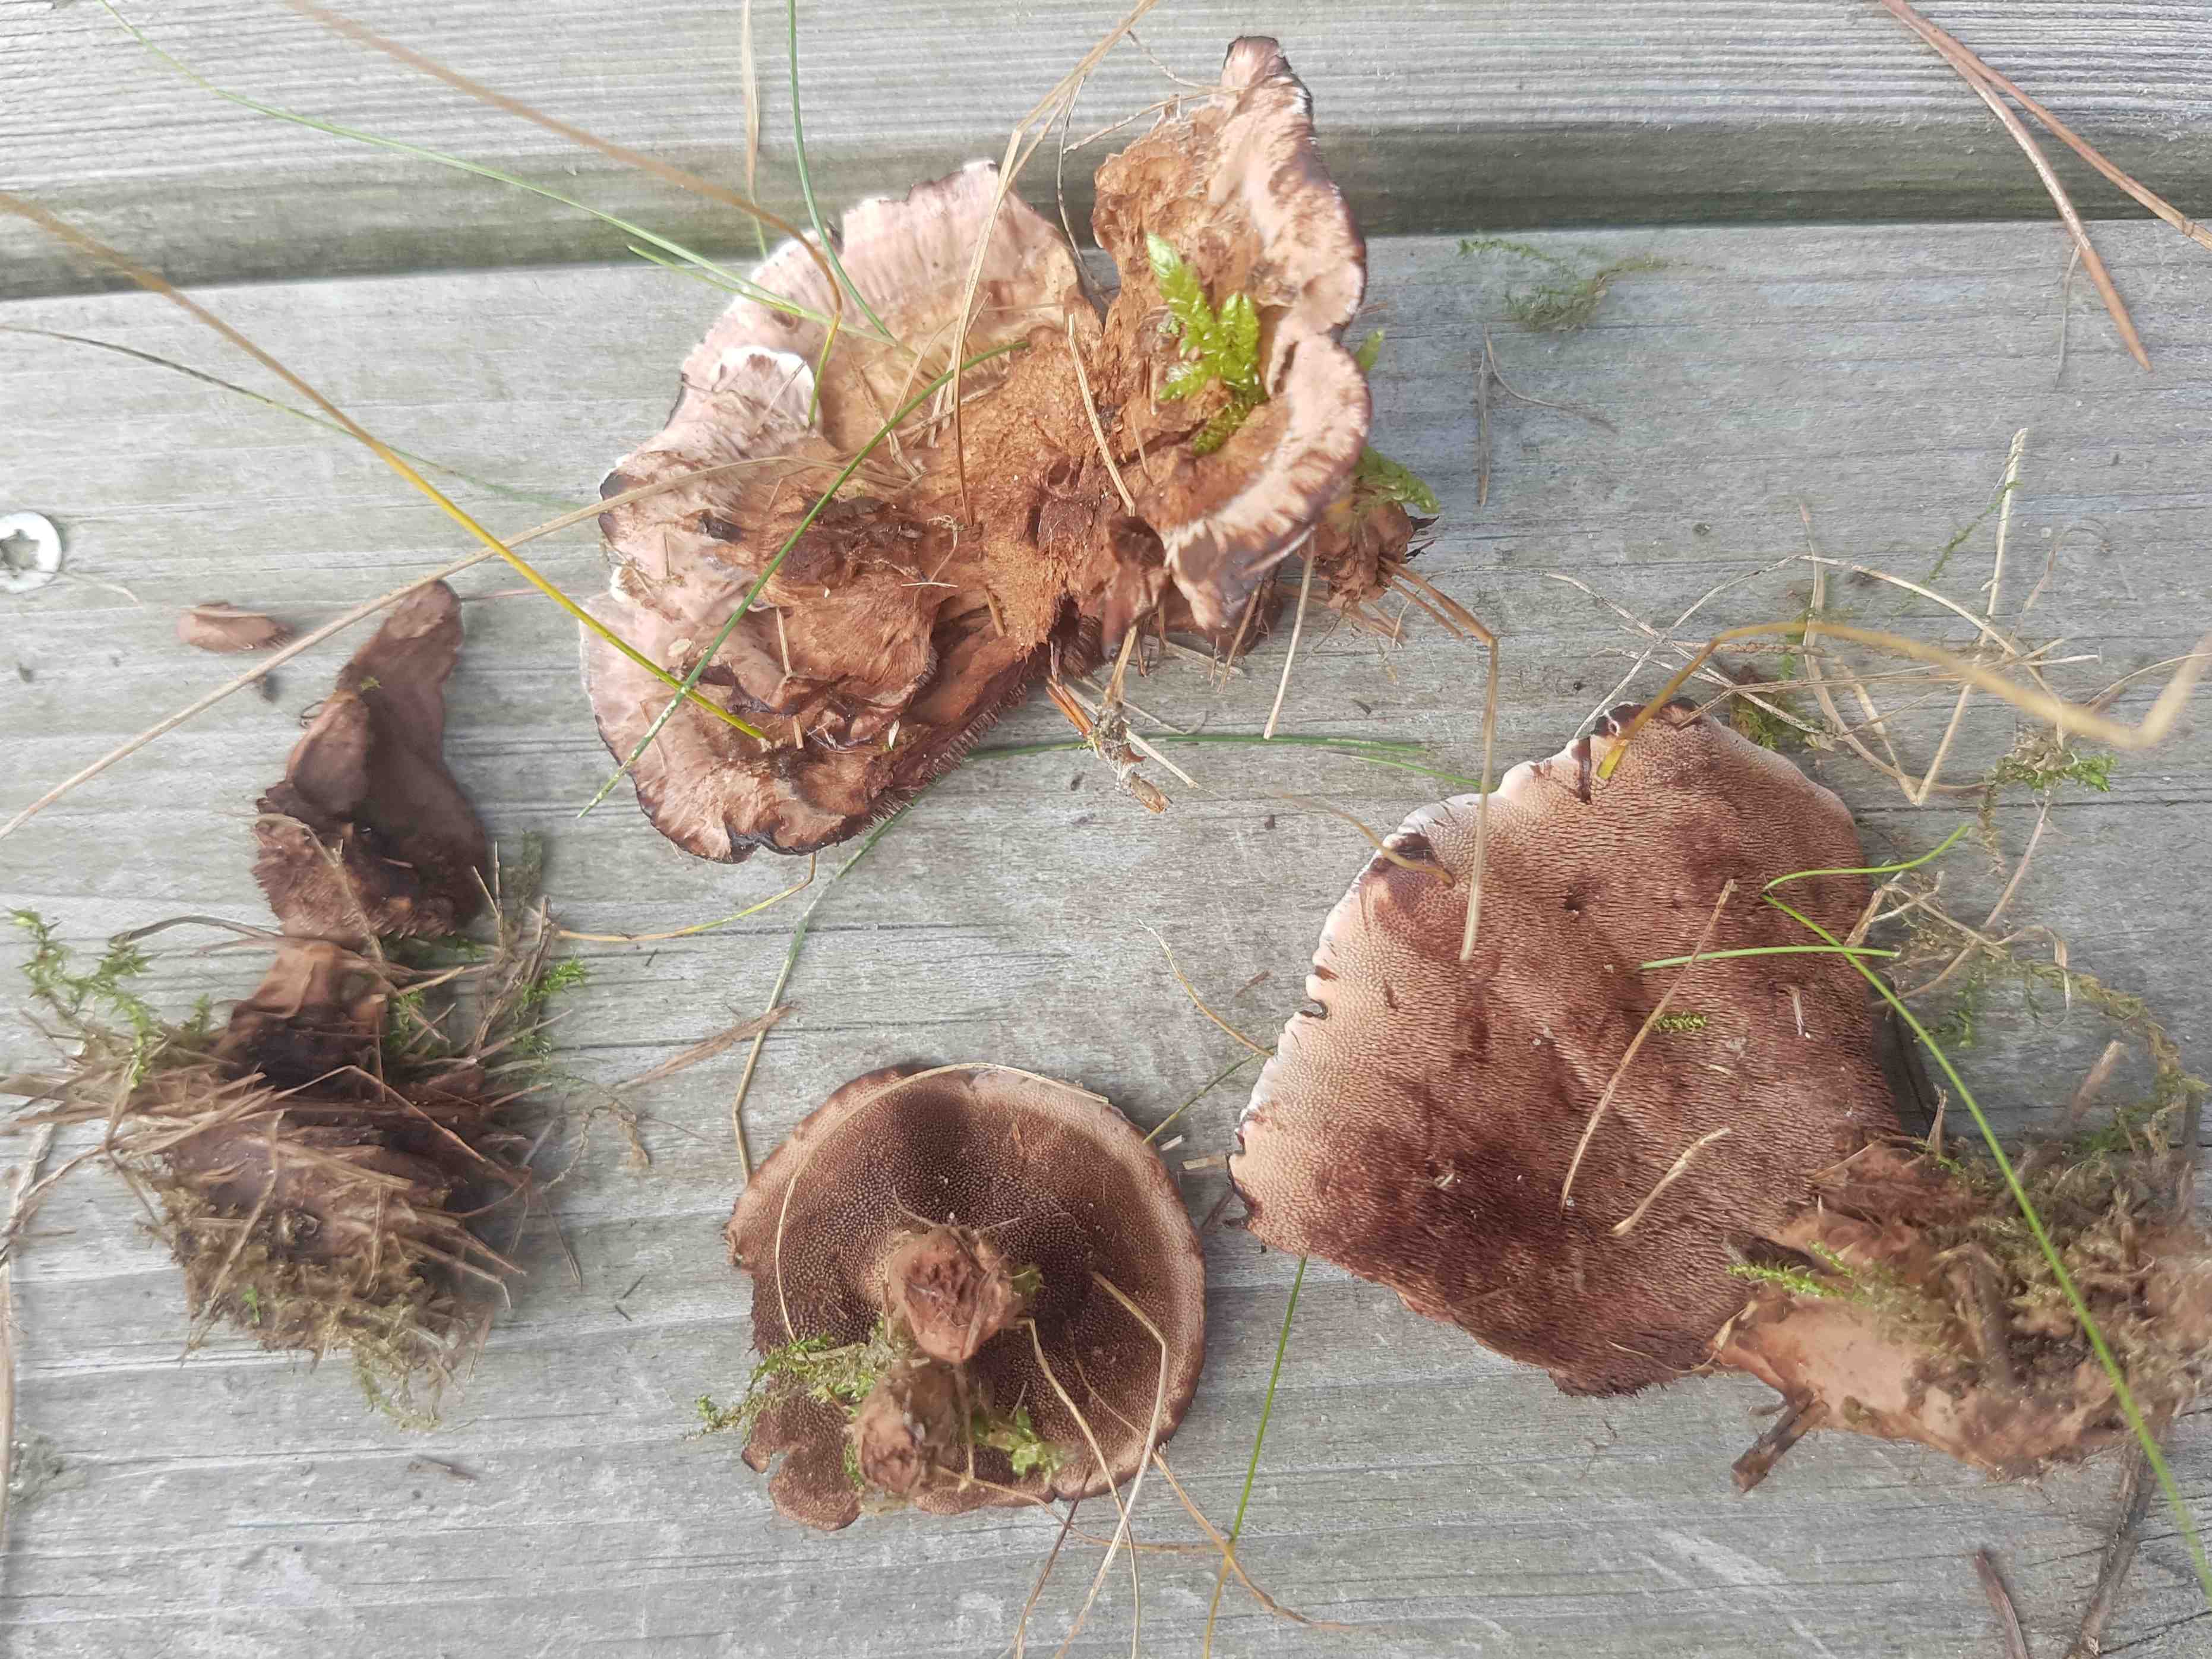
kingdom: Fungi
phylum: Basidiomycota
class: Agaricomycetes
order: Thelephorales
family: Bankeraceae
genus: Hydnellum
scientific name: Hydnellum concrescens
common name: bæltet korkpigsvamp
